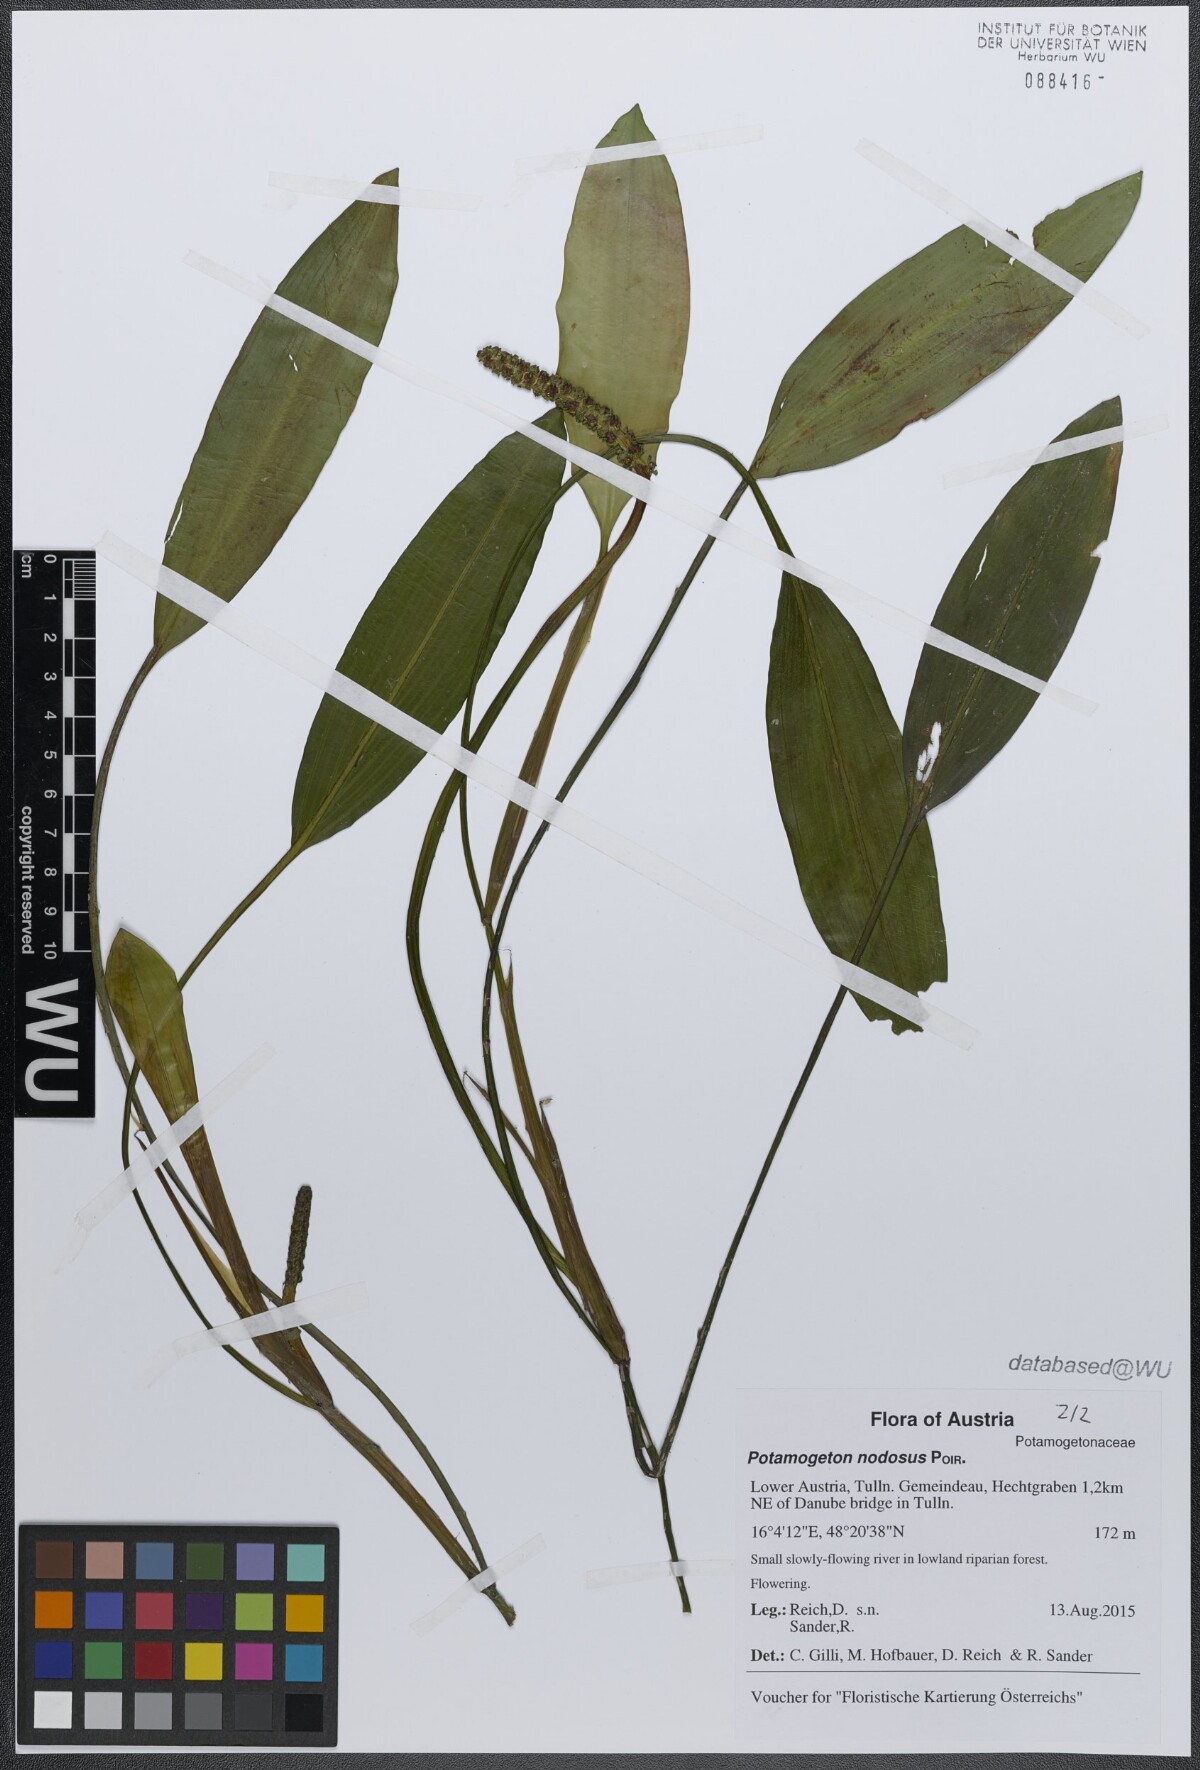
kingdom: Plantae
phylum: Tracheophyta
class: Liliopsida
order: Alismatales
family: Potamogetonaceae
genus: Potamogeton
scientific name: Potamogeton nodosus
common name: Loddon pondweed
